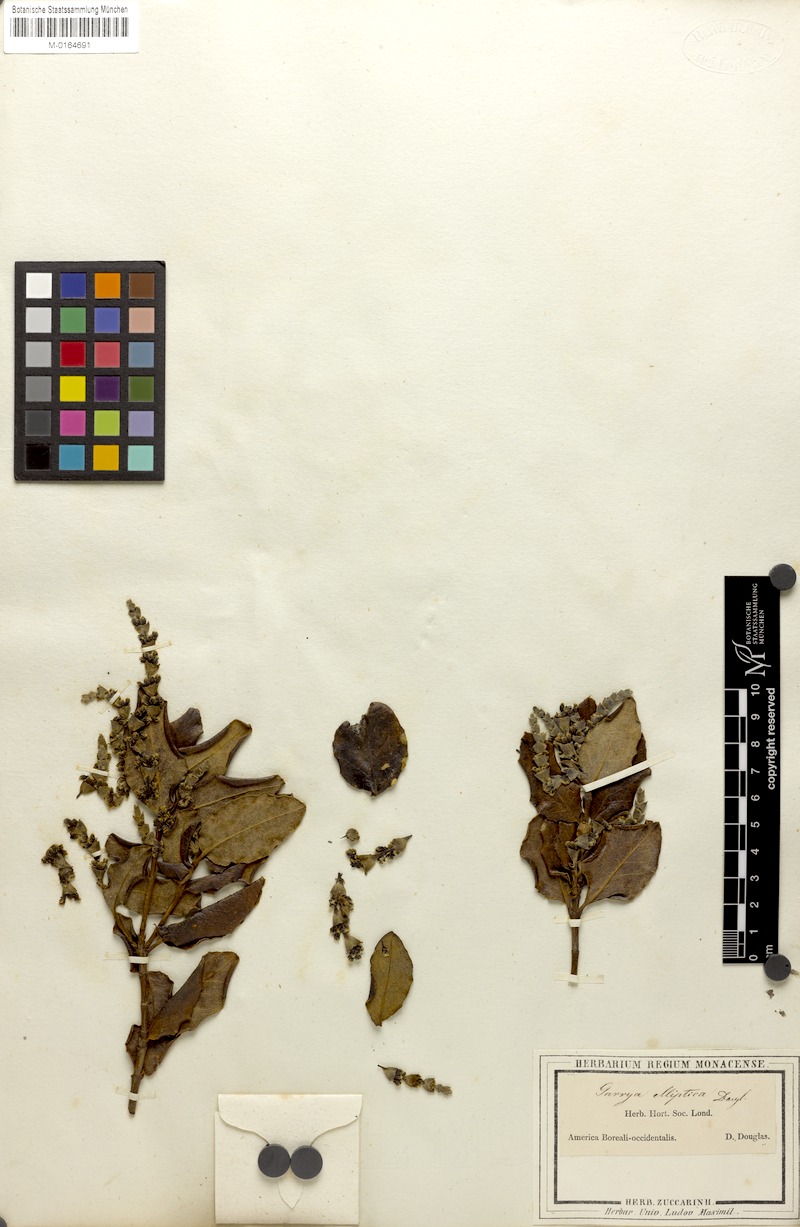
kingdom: Plantae
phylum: Tracheophyta
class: Magnoliopsida
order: Garryales
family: Garryaceae
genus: Garrya
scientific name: Garrya elliptica
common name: Silk-tassel
